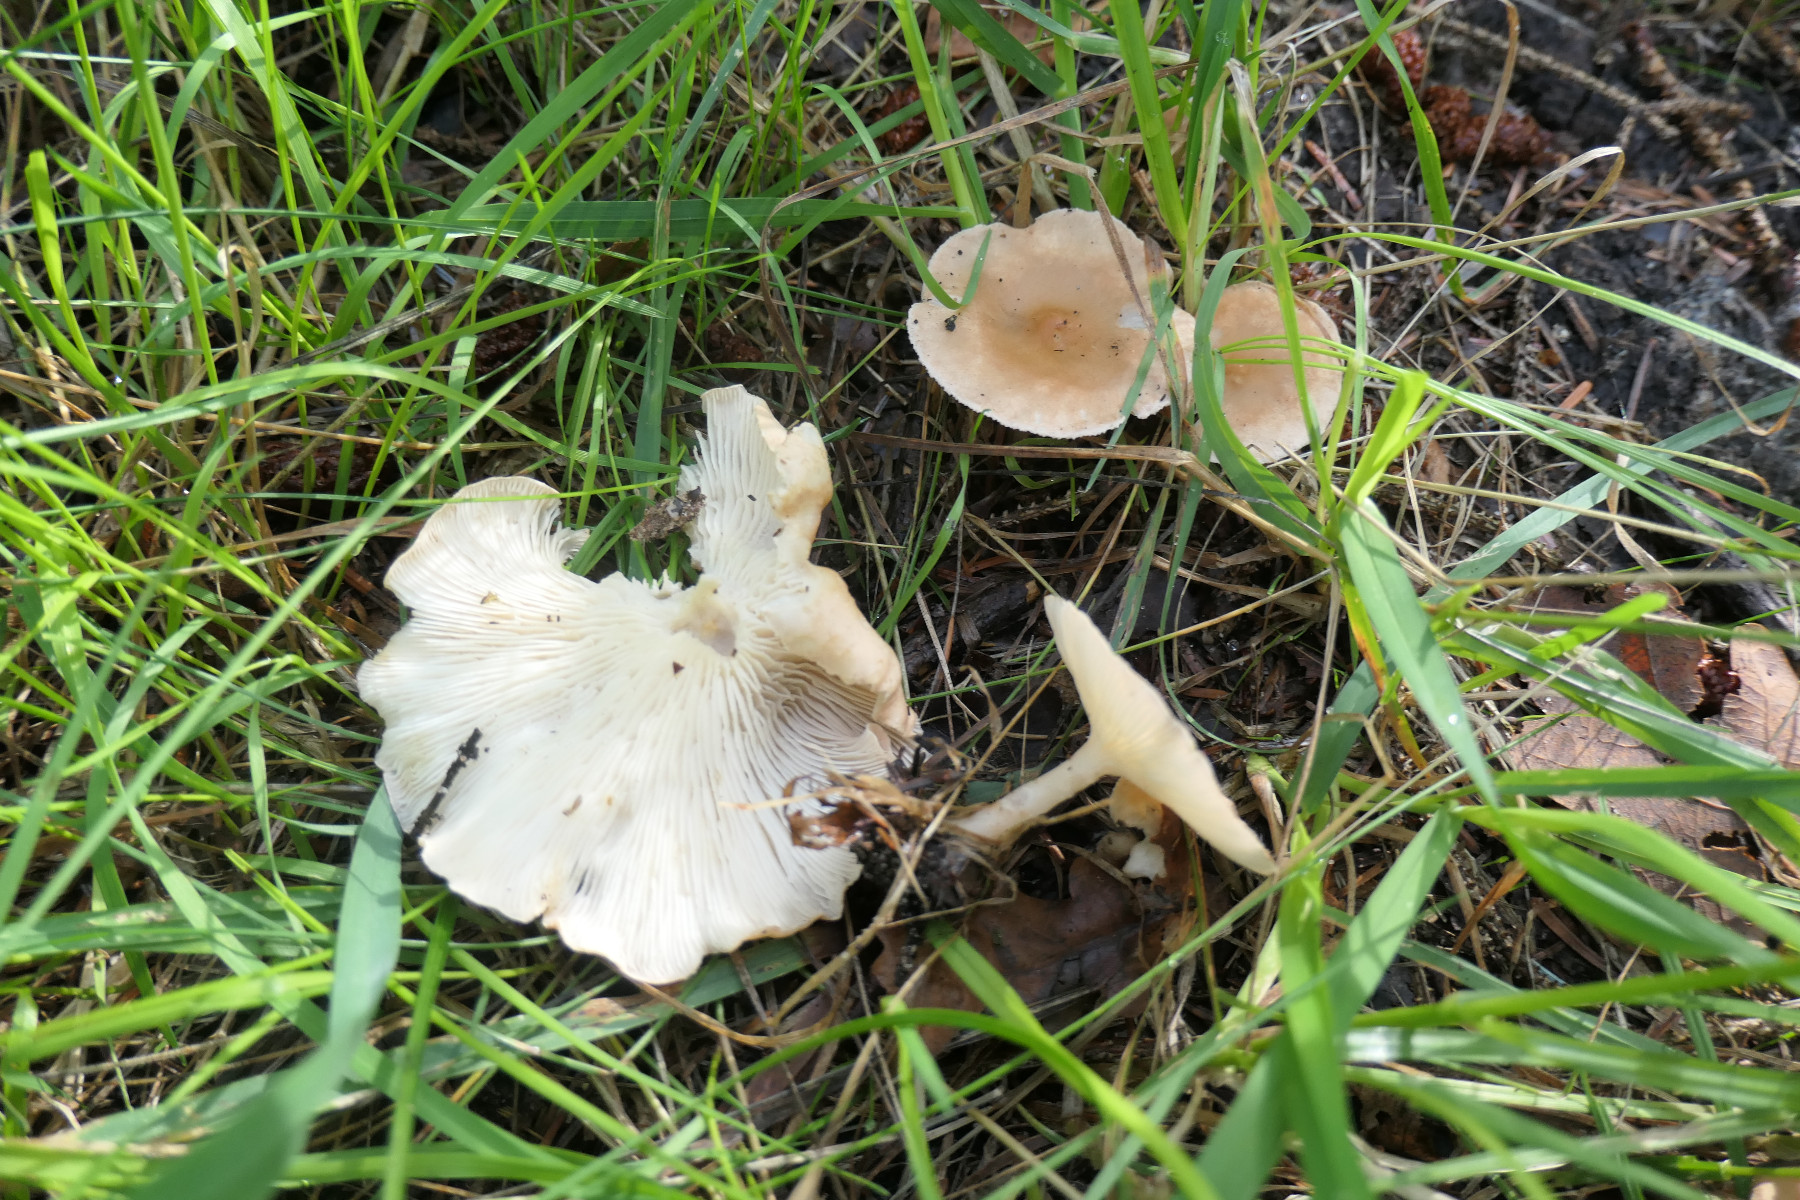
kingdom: Fungi
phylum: Basidiomycota
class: Agaricomycetes
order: Agaricales
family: Tricholomataceae
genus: Infundibulicybe
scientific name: Infundibulicybe gibba
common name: almindelig tragthat
